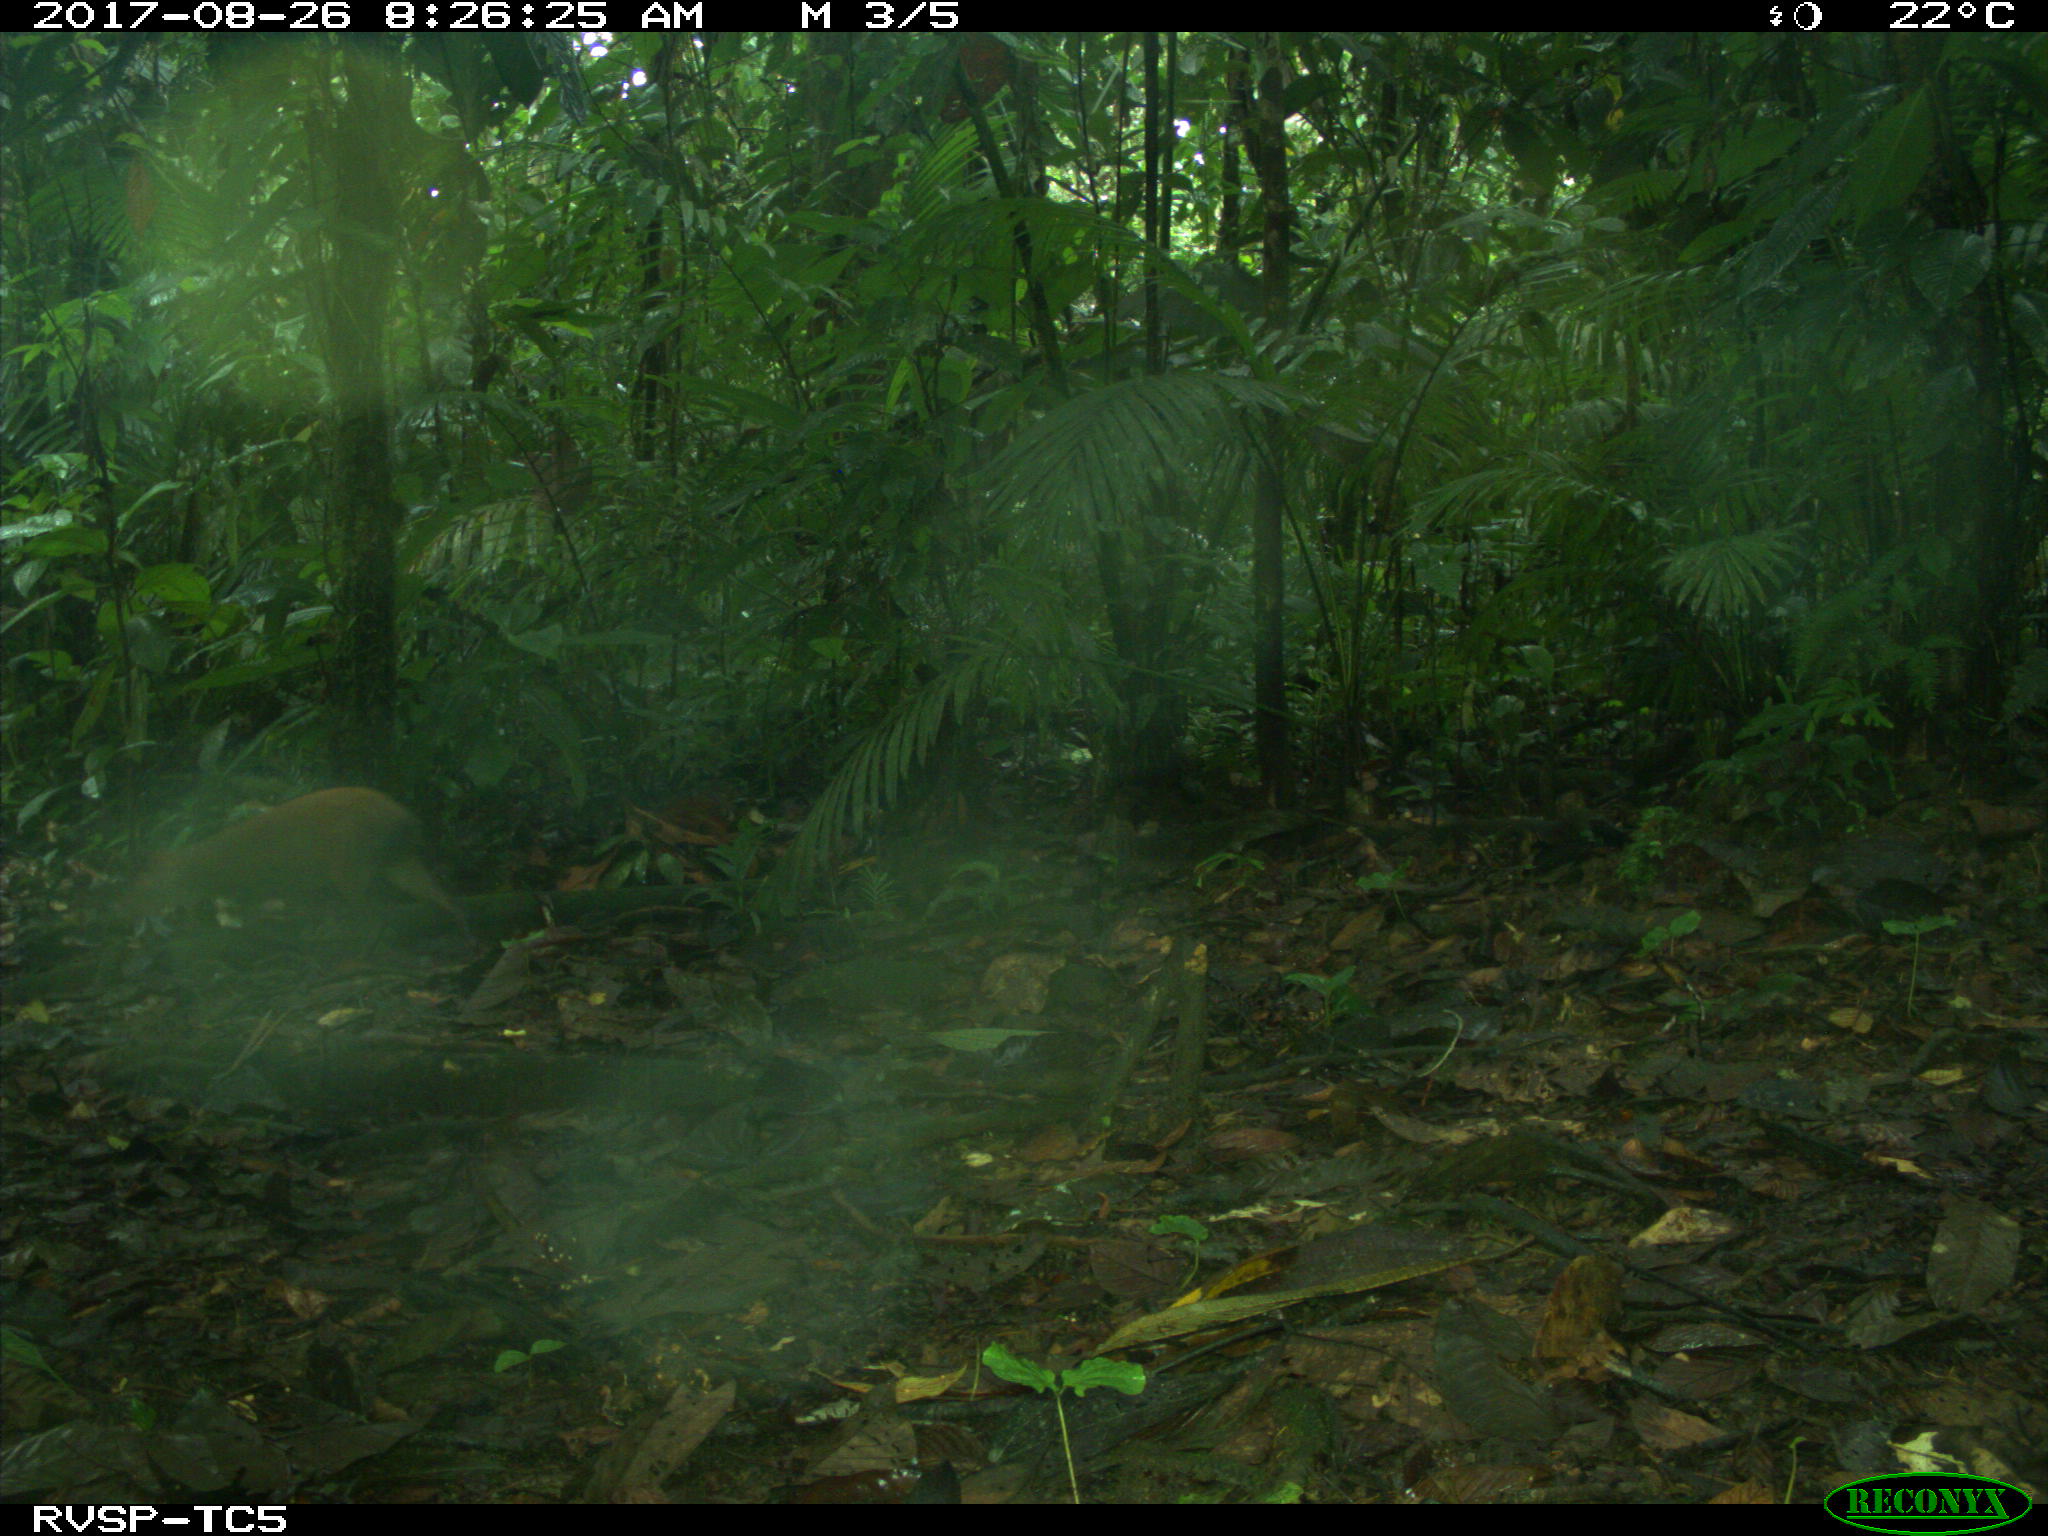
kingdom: Animalia
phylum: Chordata
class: Mammalia
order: Rodentia
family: Dasyproctidae
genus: Dasyprocta
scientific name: Dasyprocta punctata
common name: Central american agouti
